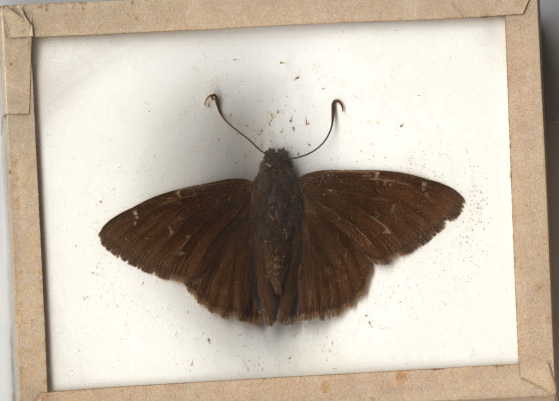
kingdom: Animalia
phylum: Arthropoda
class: Insecta
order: Lepidoptera
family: Hesperiidae
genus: Thorybes
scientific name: Thorybes pylades
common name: Northern Cloudywing
